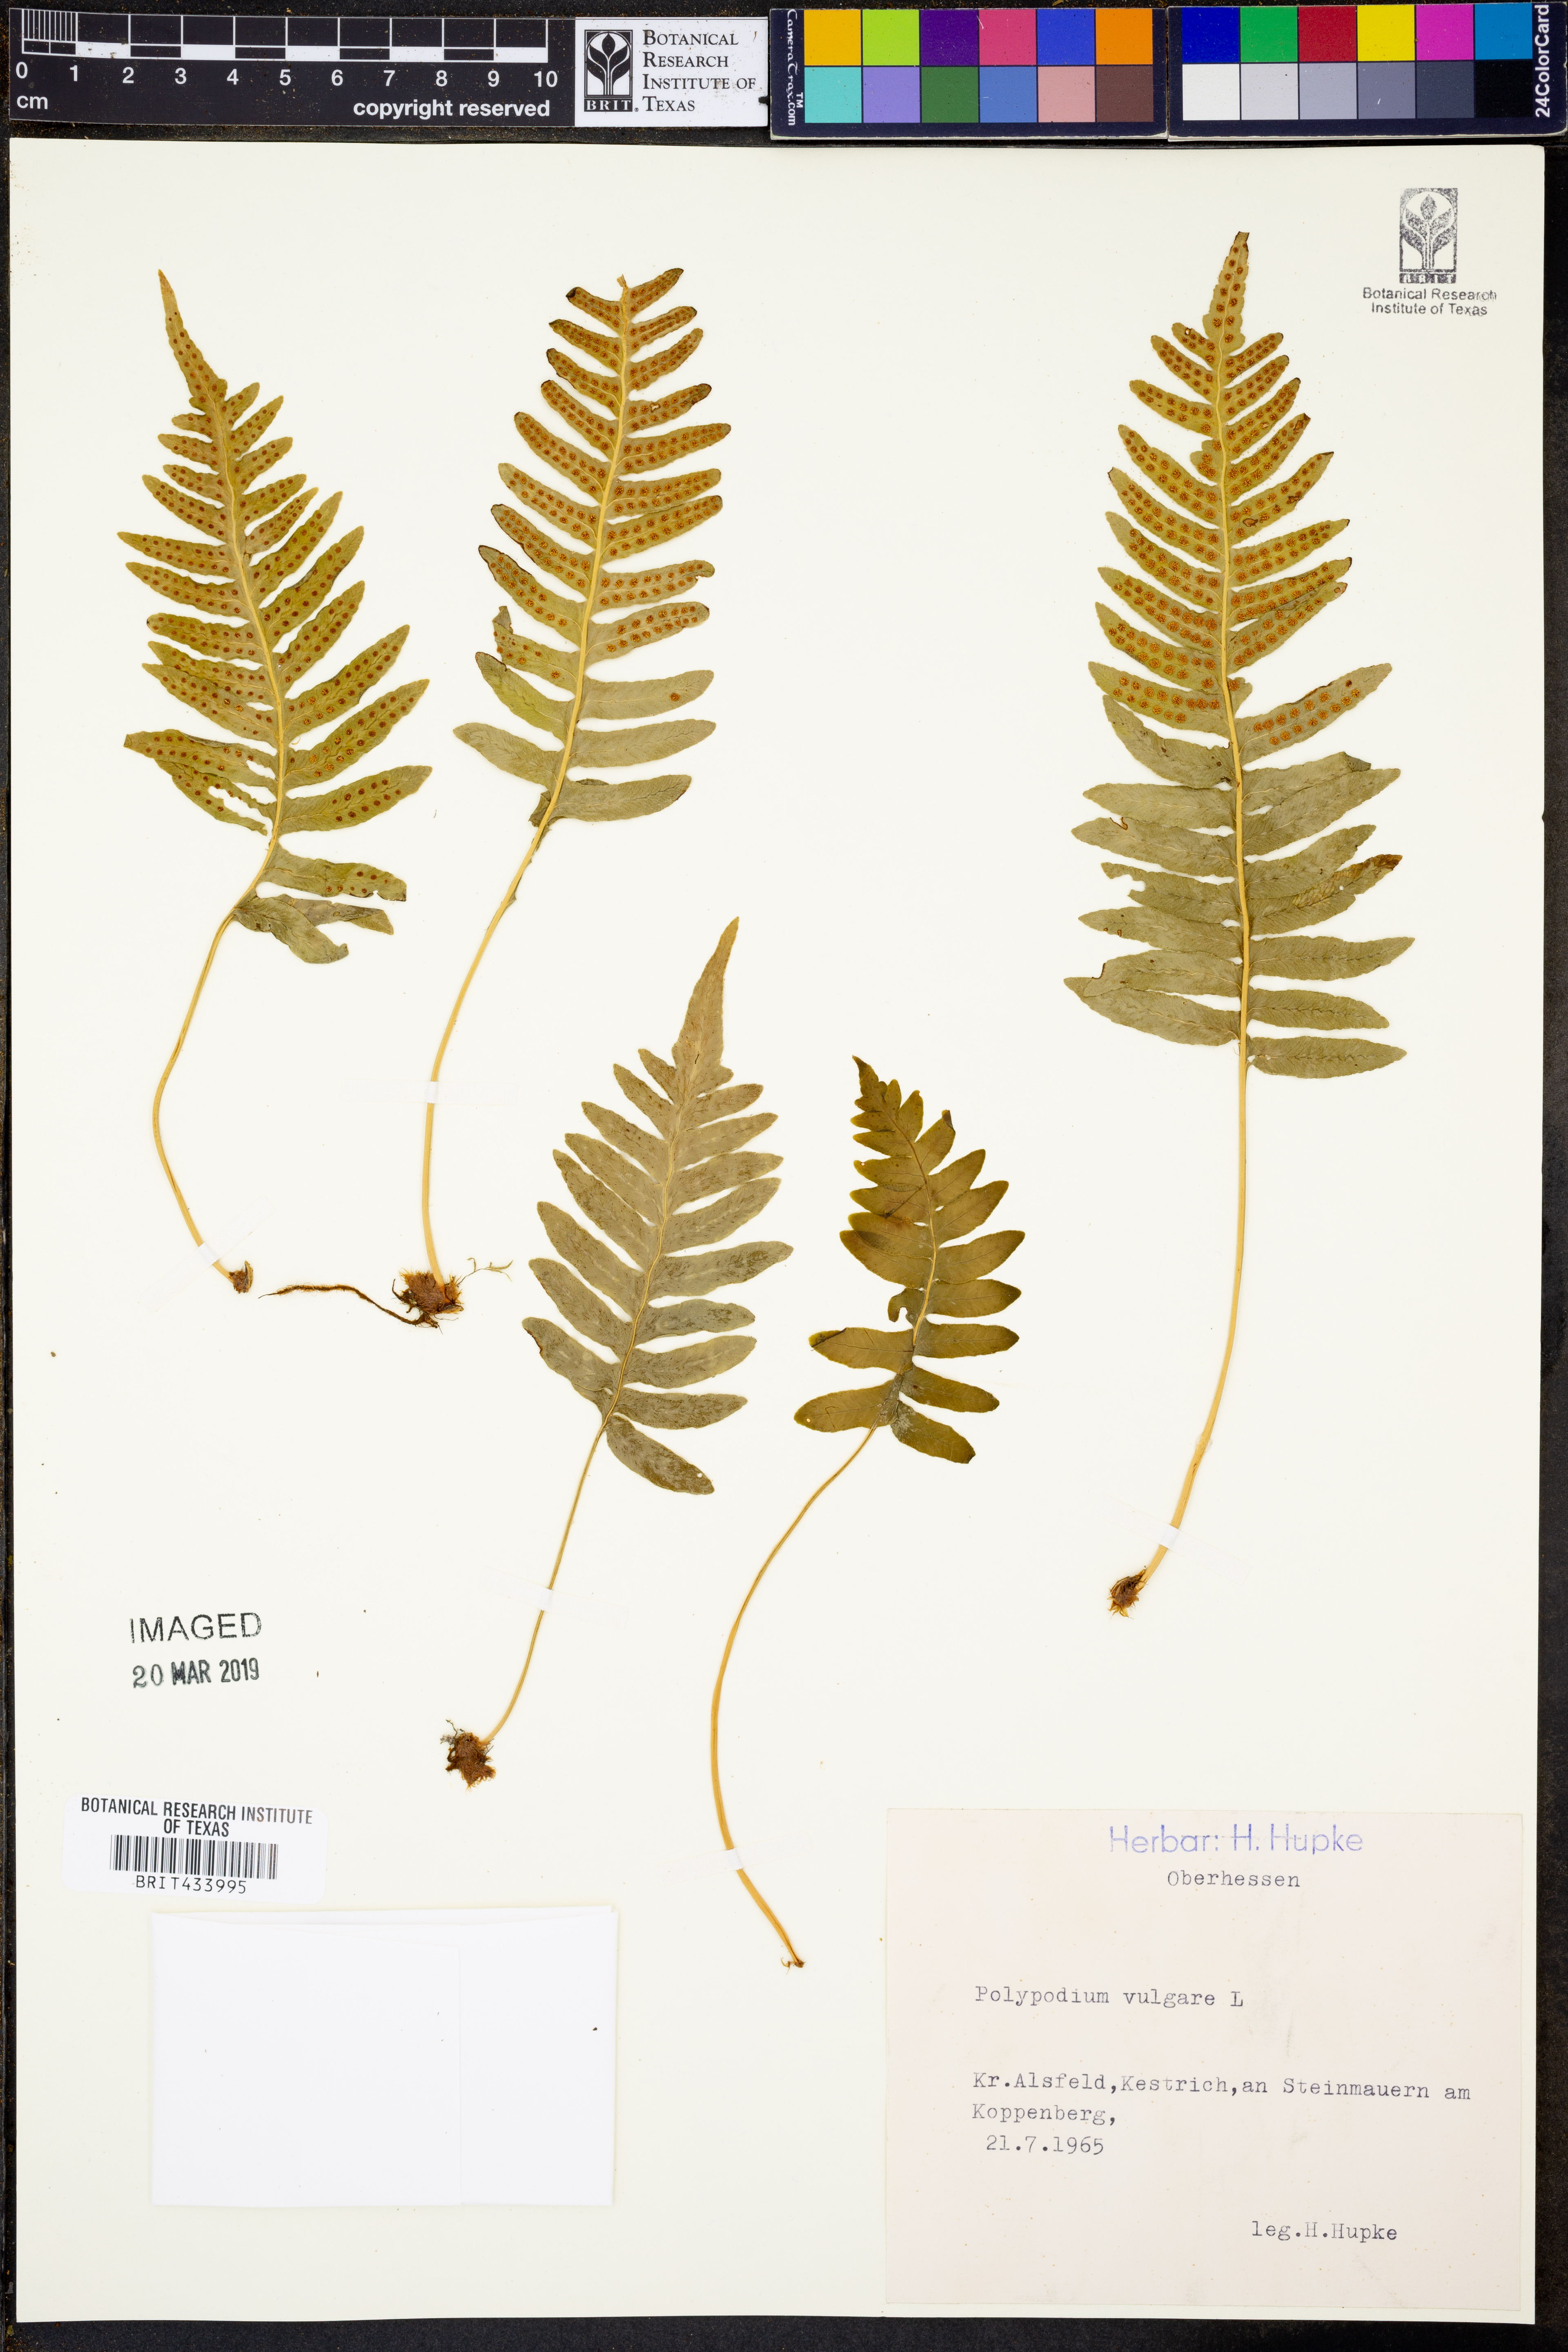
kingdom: Plantae
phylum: Tracheophyta
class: Polypodiopsida
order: Polypodiales
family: Polypodiaceae
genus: Polypodium
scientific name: Polypodium vulgare
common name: Common polypody
